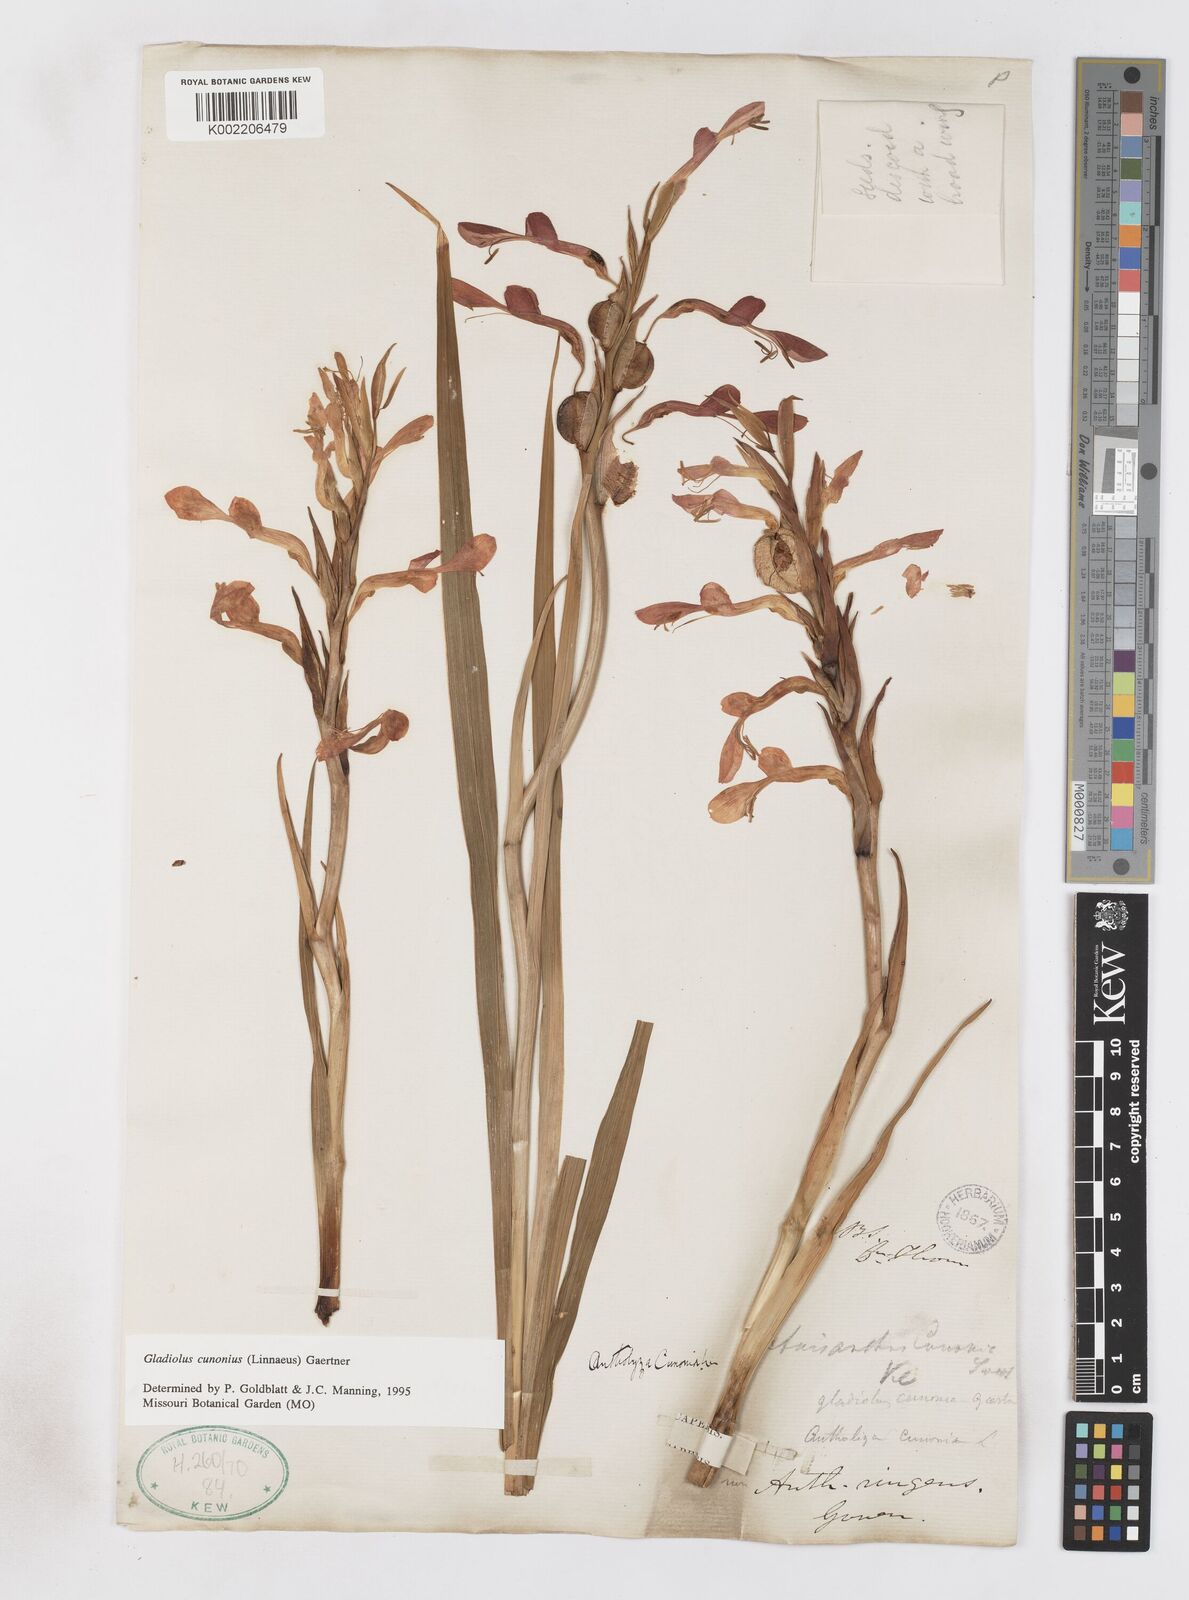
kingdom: Plantae
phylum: Tracheophyta
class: Liliopsida
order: Asparagales
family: Iridaceae
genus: Gladiolus
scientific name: Gladiolus cunonius
